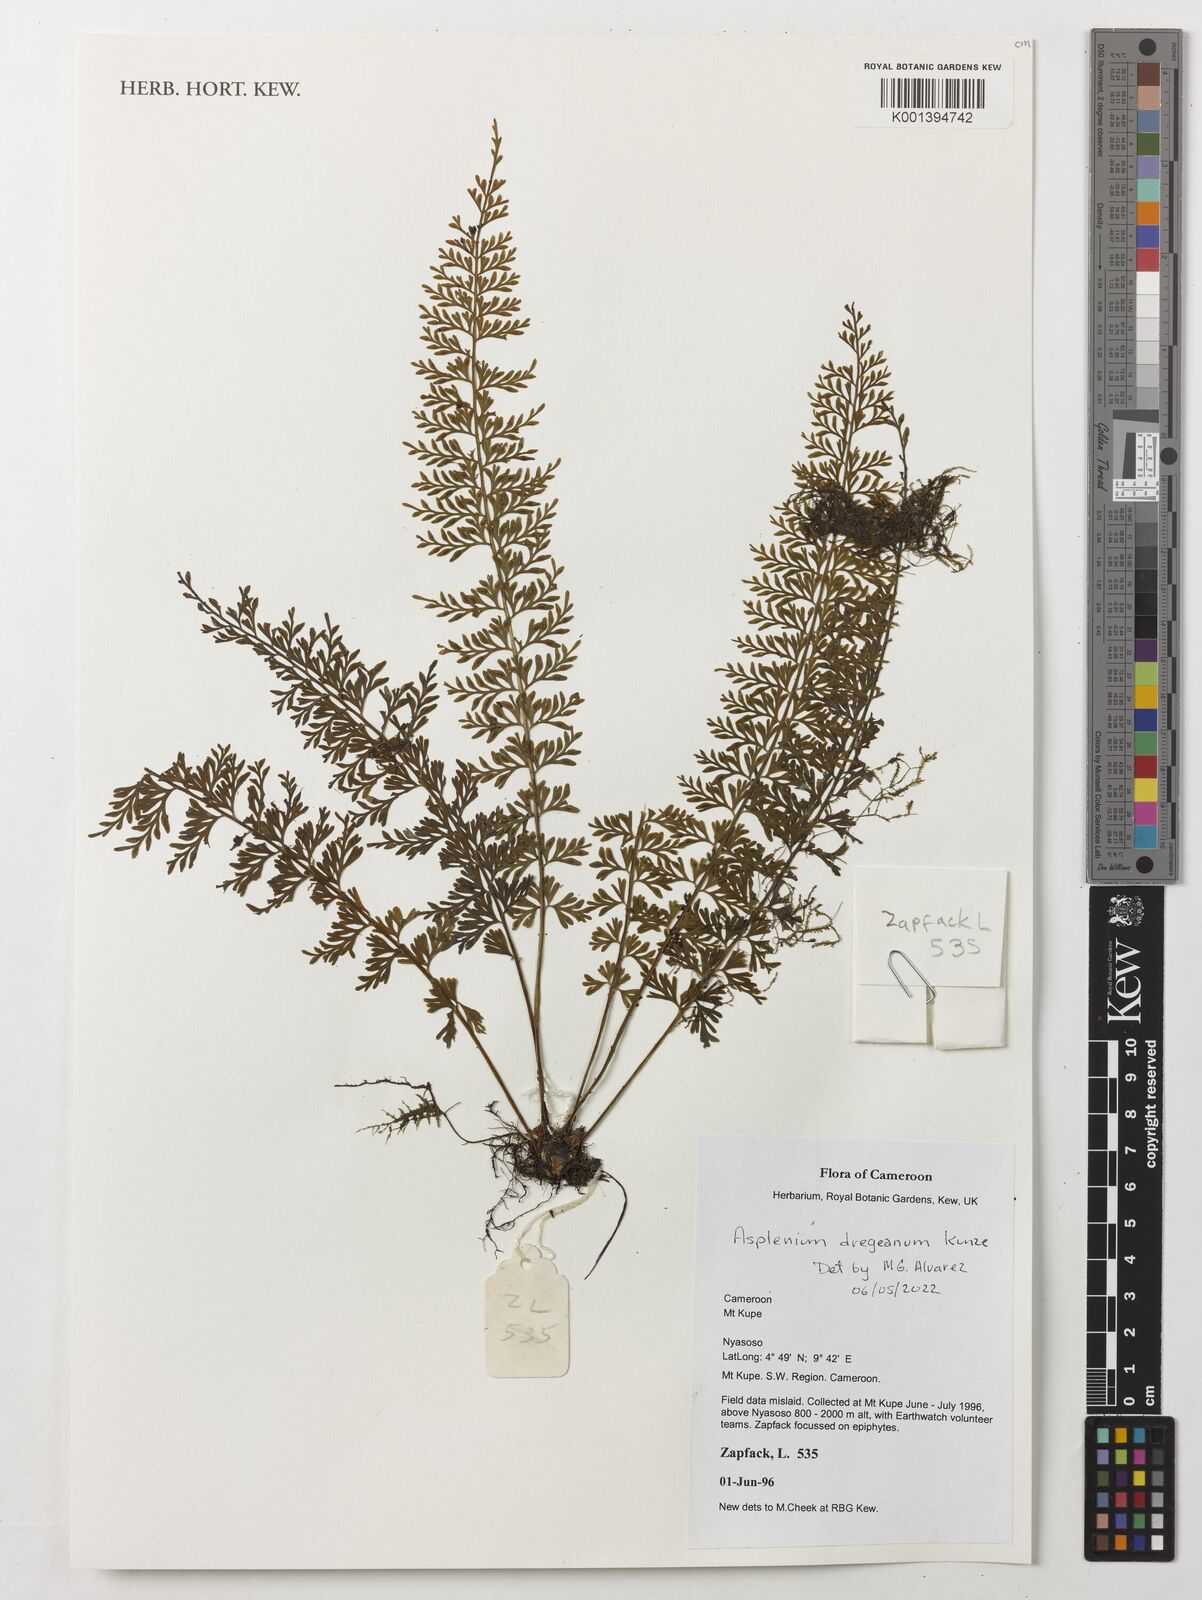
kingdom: Plantae
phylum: Tracheophyta
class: Polypodiopsida
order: Polypodiales
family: Aspleniaceae
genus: Asplenium
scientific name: Asplenium dregeanum
